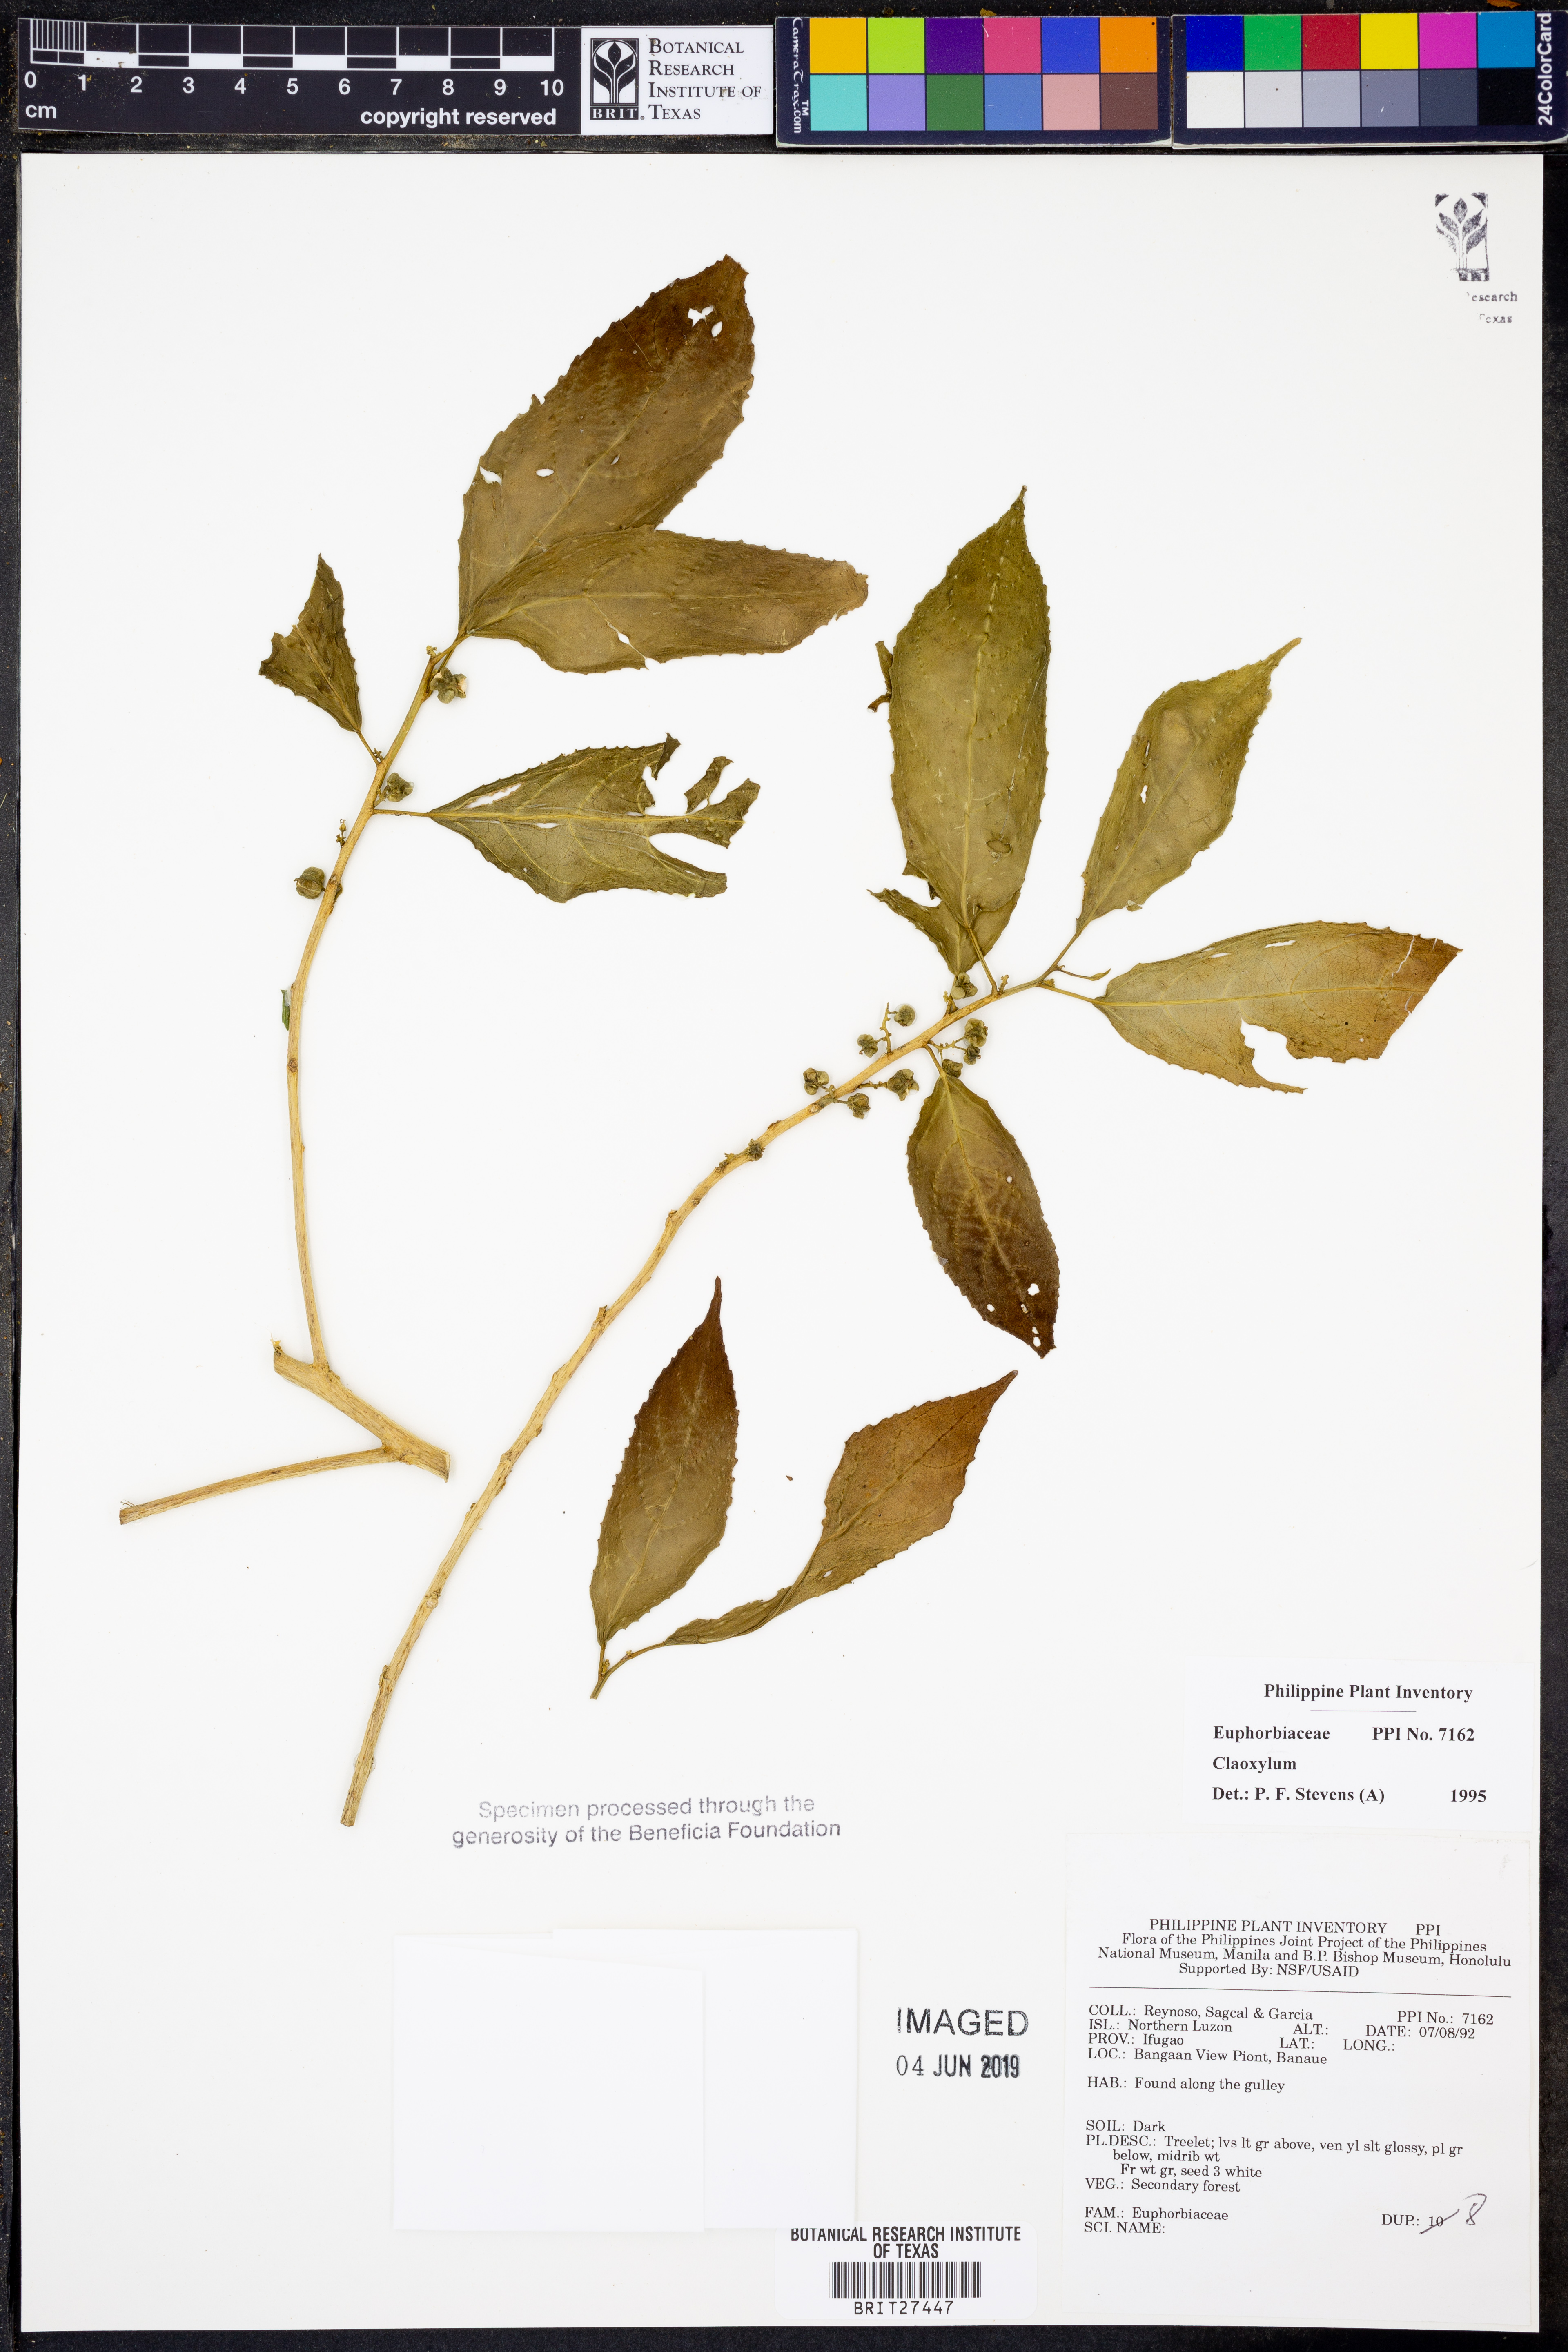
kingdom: Plantae
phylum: Tracheophyta
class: Magnoliopsida
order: Malpighiales
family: Euphorbiaceae
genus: Claoxylon
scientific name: Claoxylon
